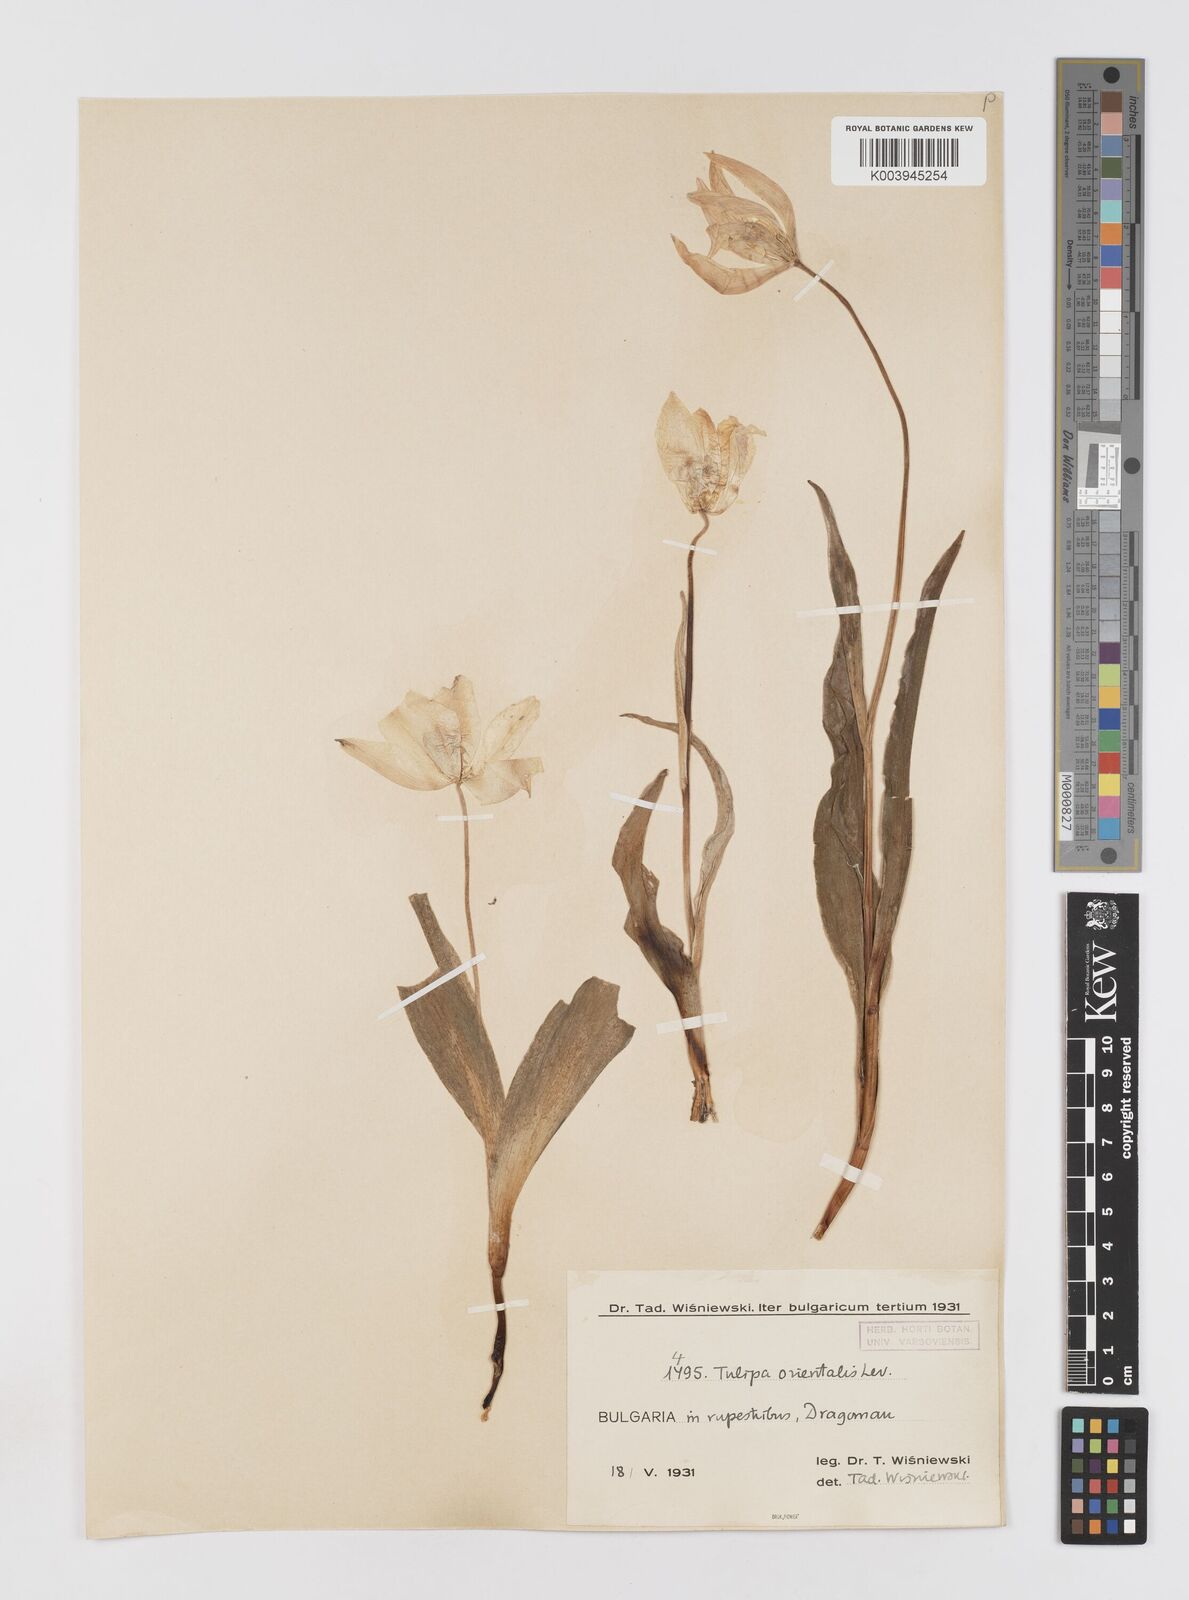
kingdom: Plantae
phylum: Tracheophyta
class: Liliopsida
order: Liliales
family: Liliaceae
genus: Tulipa
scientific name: Tulipa hungarica
